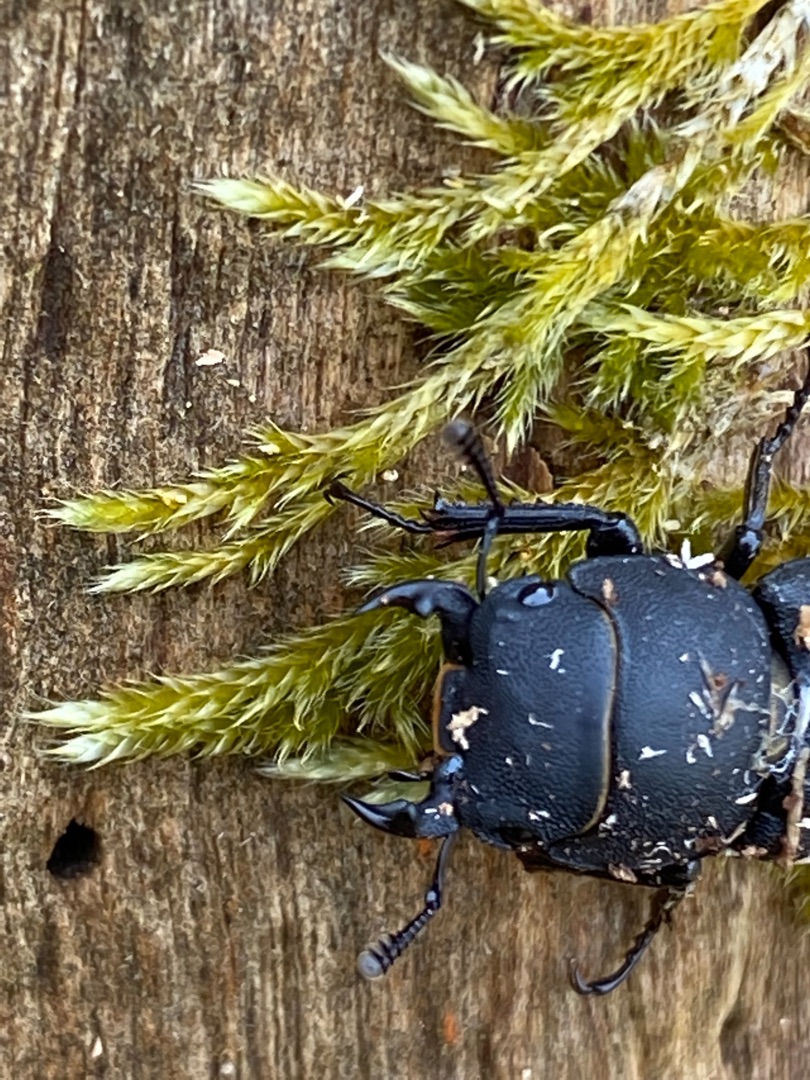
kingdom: Animalia
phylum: Arthropoda
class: Insecta
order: Coleoptera
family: Lucanidae
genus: Dorcus
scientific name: Dorcus parallelipipedus
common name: Bøghjort
